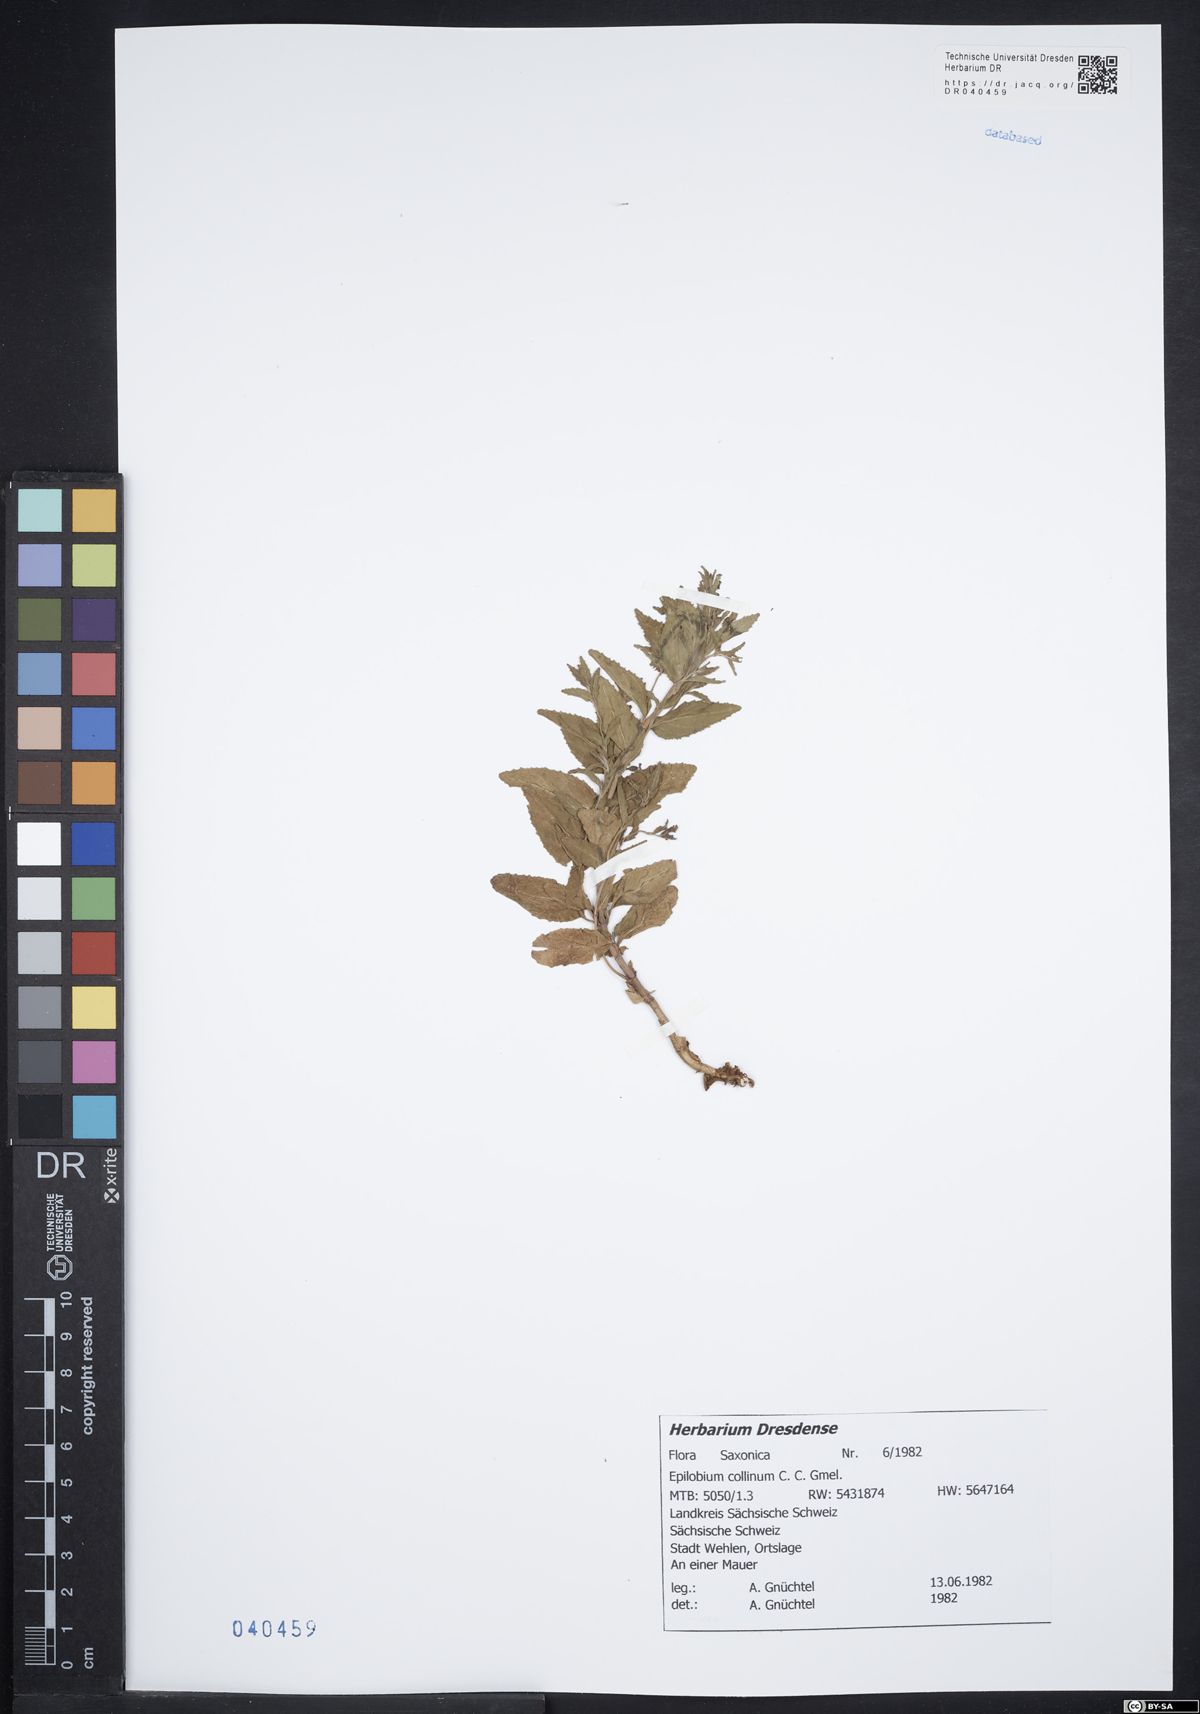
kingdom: Plantae
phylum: Tracheophyta
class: Magnoliopsida
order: Myrtales
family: Onagraceae
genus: Epilobium
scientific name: Epilobium collinum
